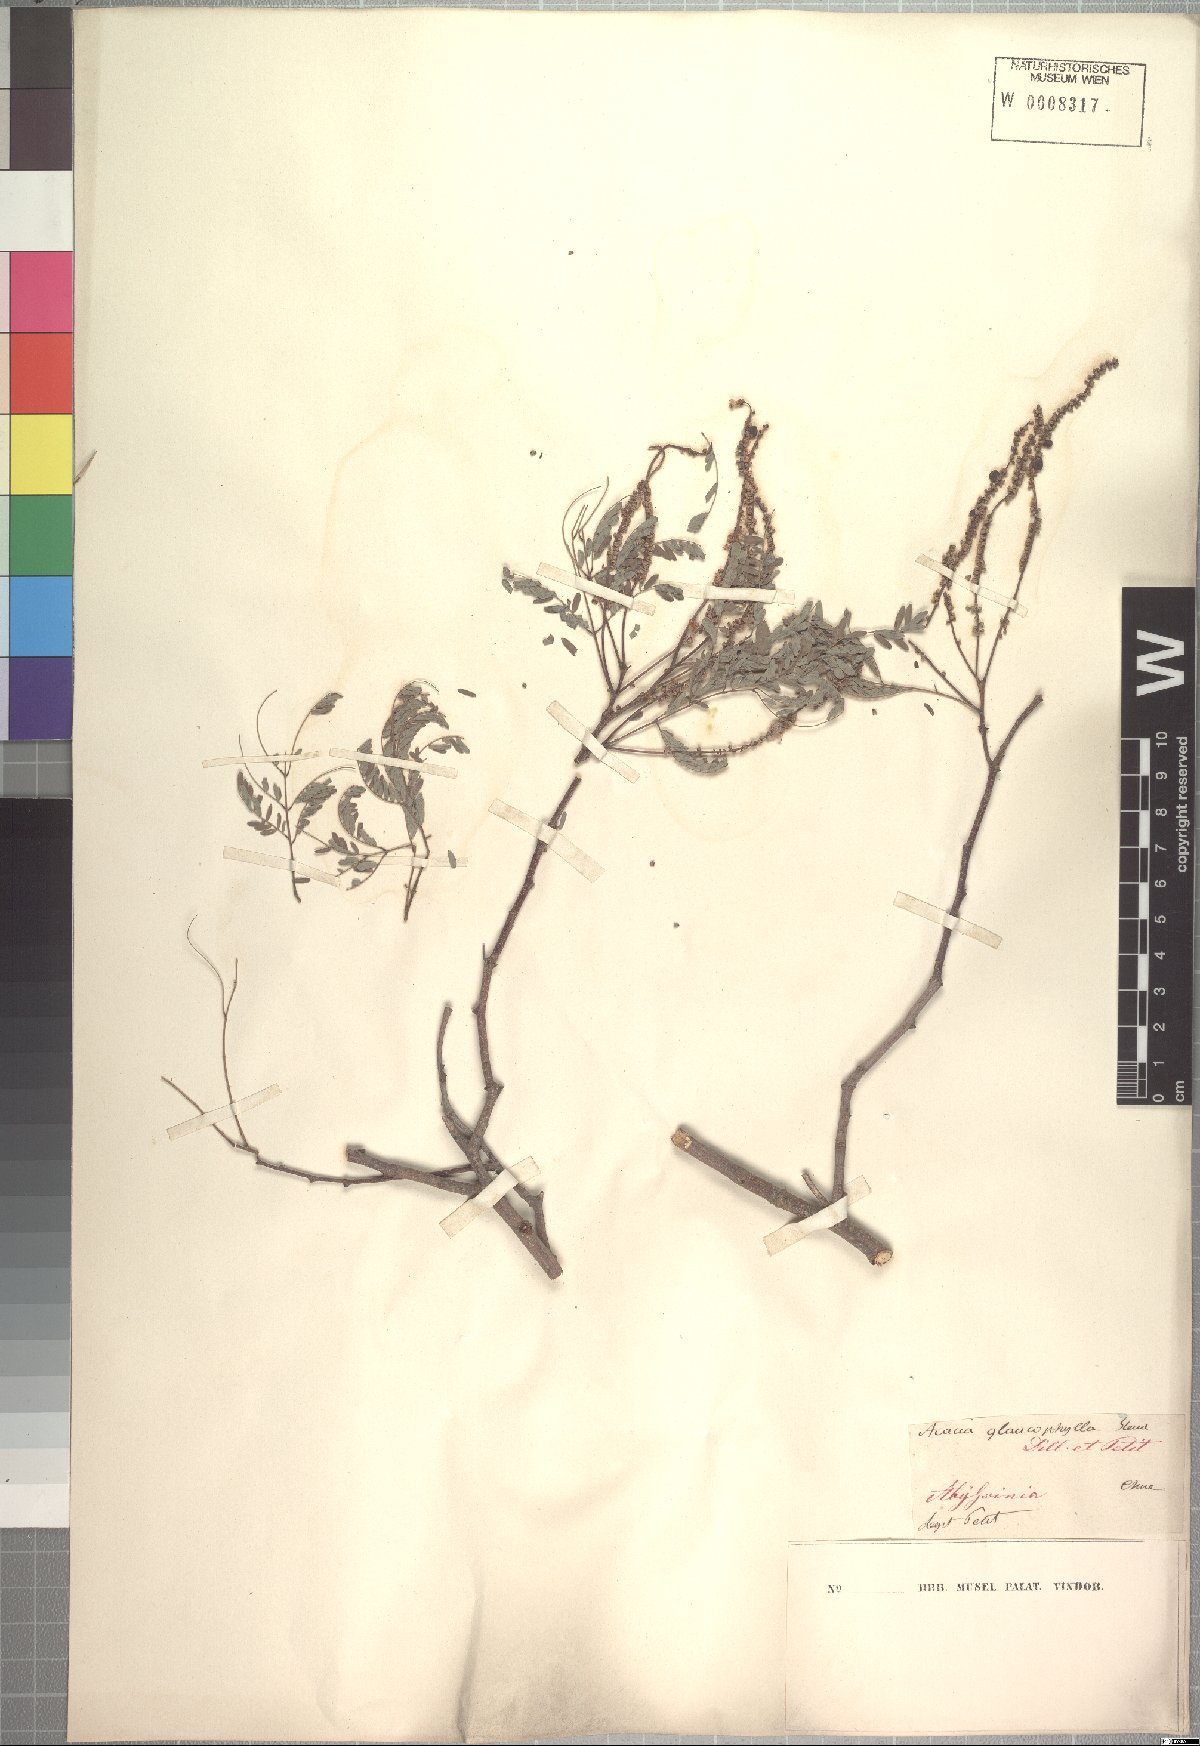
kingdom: Plantae
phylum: Tracheophyta
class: Magnoliopsida
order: Fabales
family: Fabaceae
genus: Senegalia
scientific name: Senegalia asak
